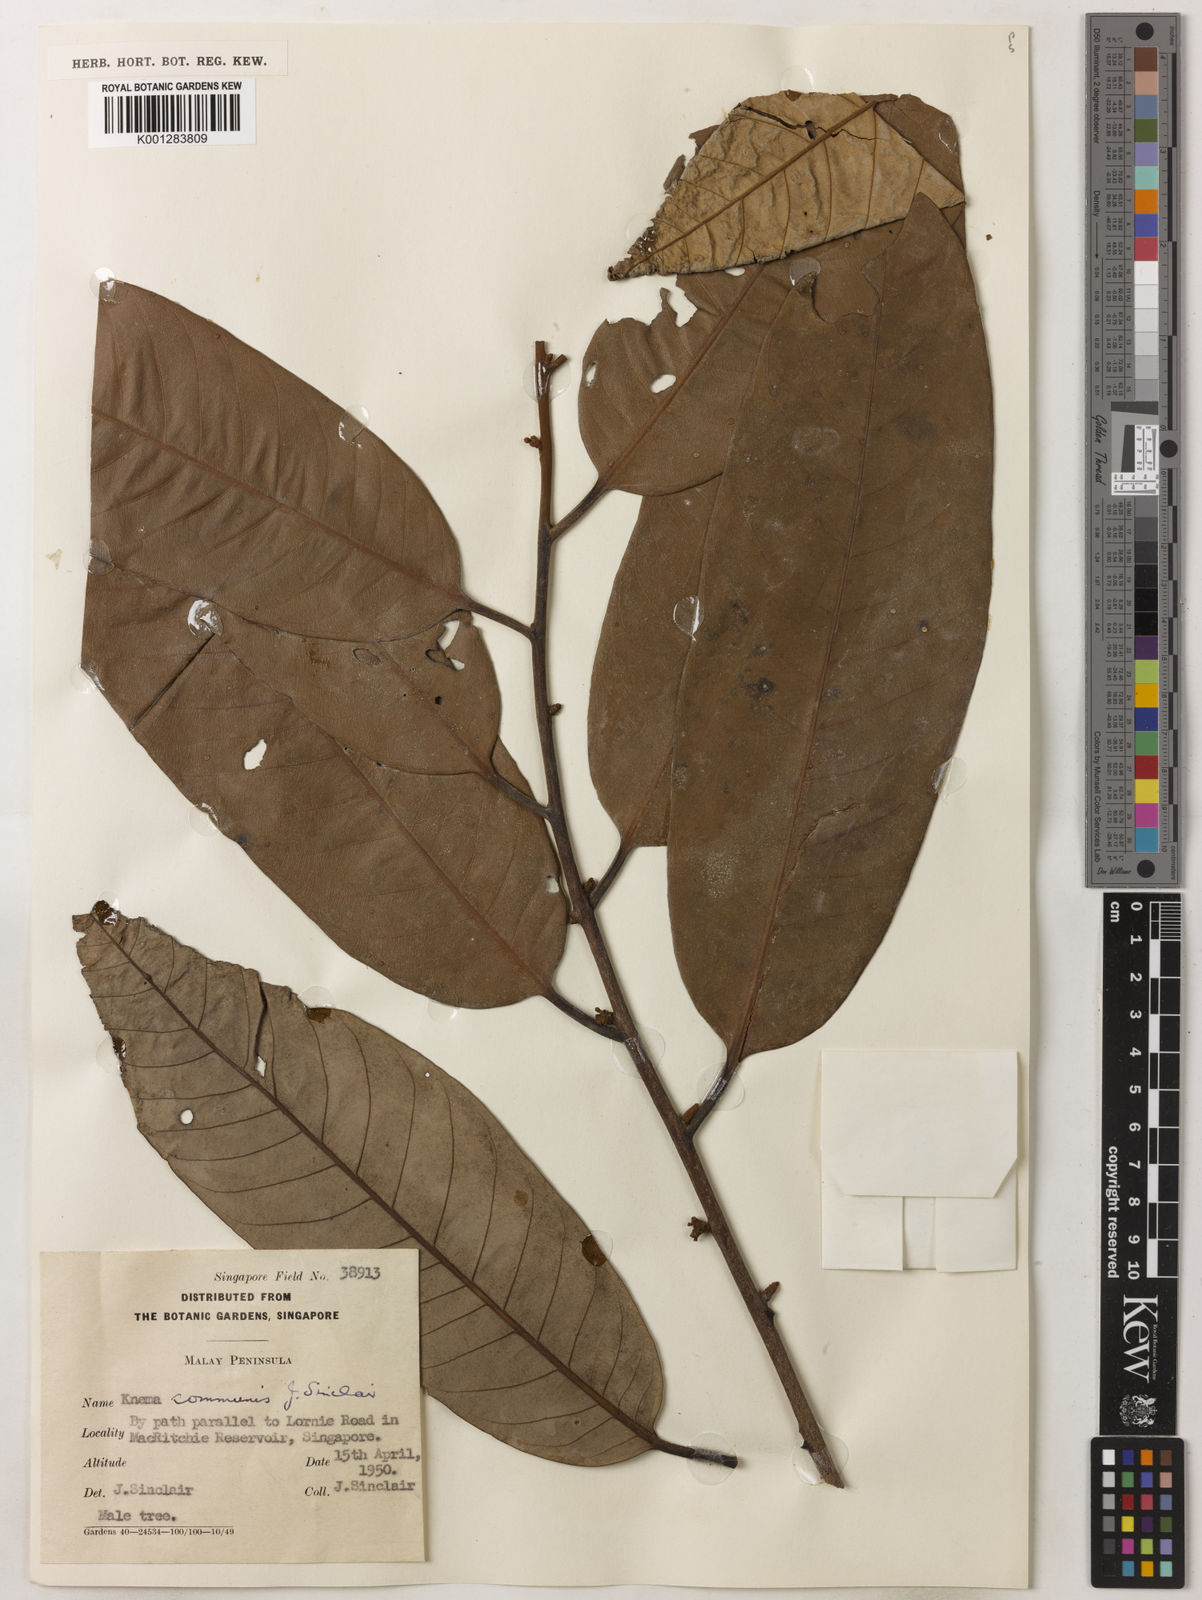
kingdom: Plantae
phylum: Tracheophyta
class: Magnoliopsida
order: Magnoliales
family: Myristicaceae
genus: Knema
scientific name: Knema communis
